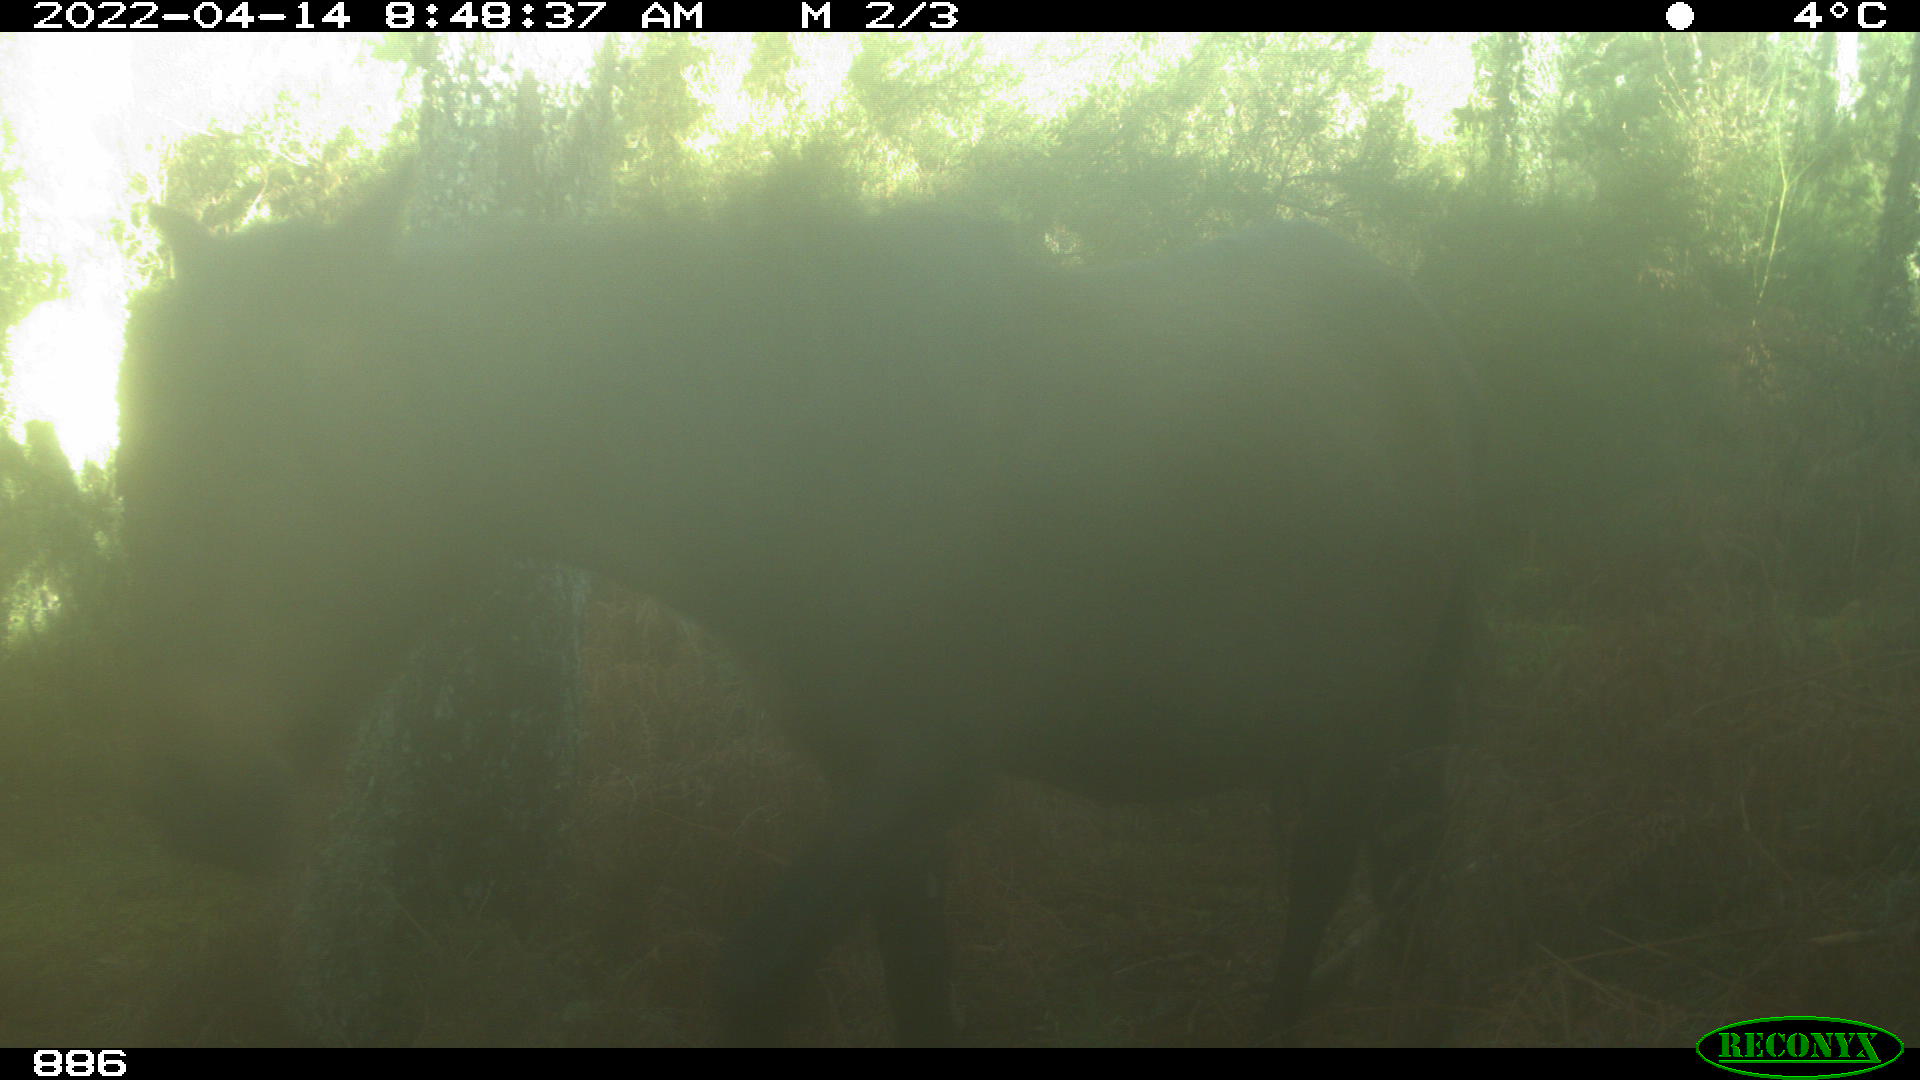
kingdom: Animalia
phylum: Chordata
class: Mammalia
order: Perissodactyla
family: Equidae
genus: Equus
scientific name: Equus caballus
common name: Horse
